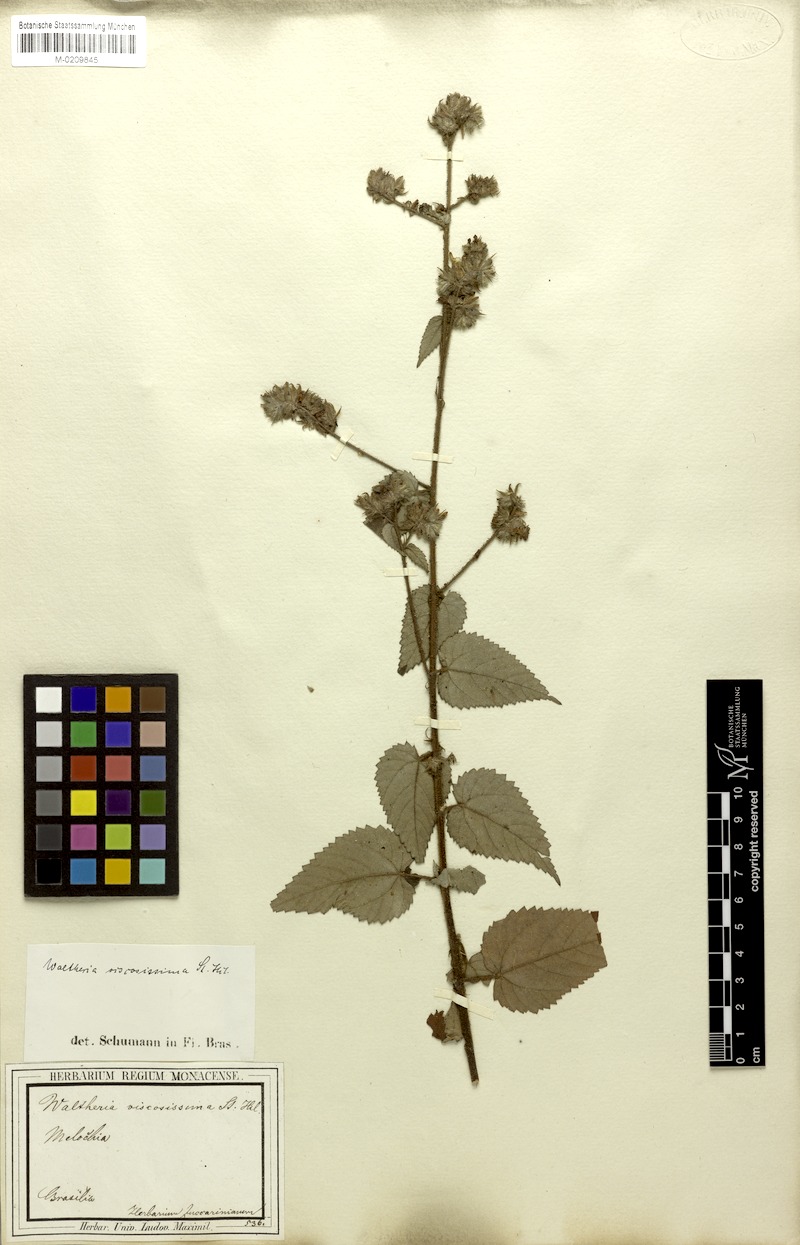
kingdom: Plantae
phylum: Tracheophyta
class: Magnoliopsida
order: Malvales
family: Malvaceae
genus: Waltheria
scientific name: Waltheria viscosissima
